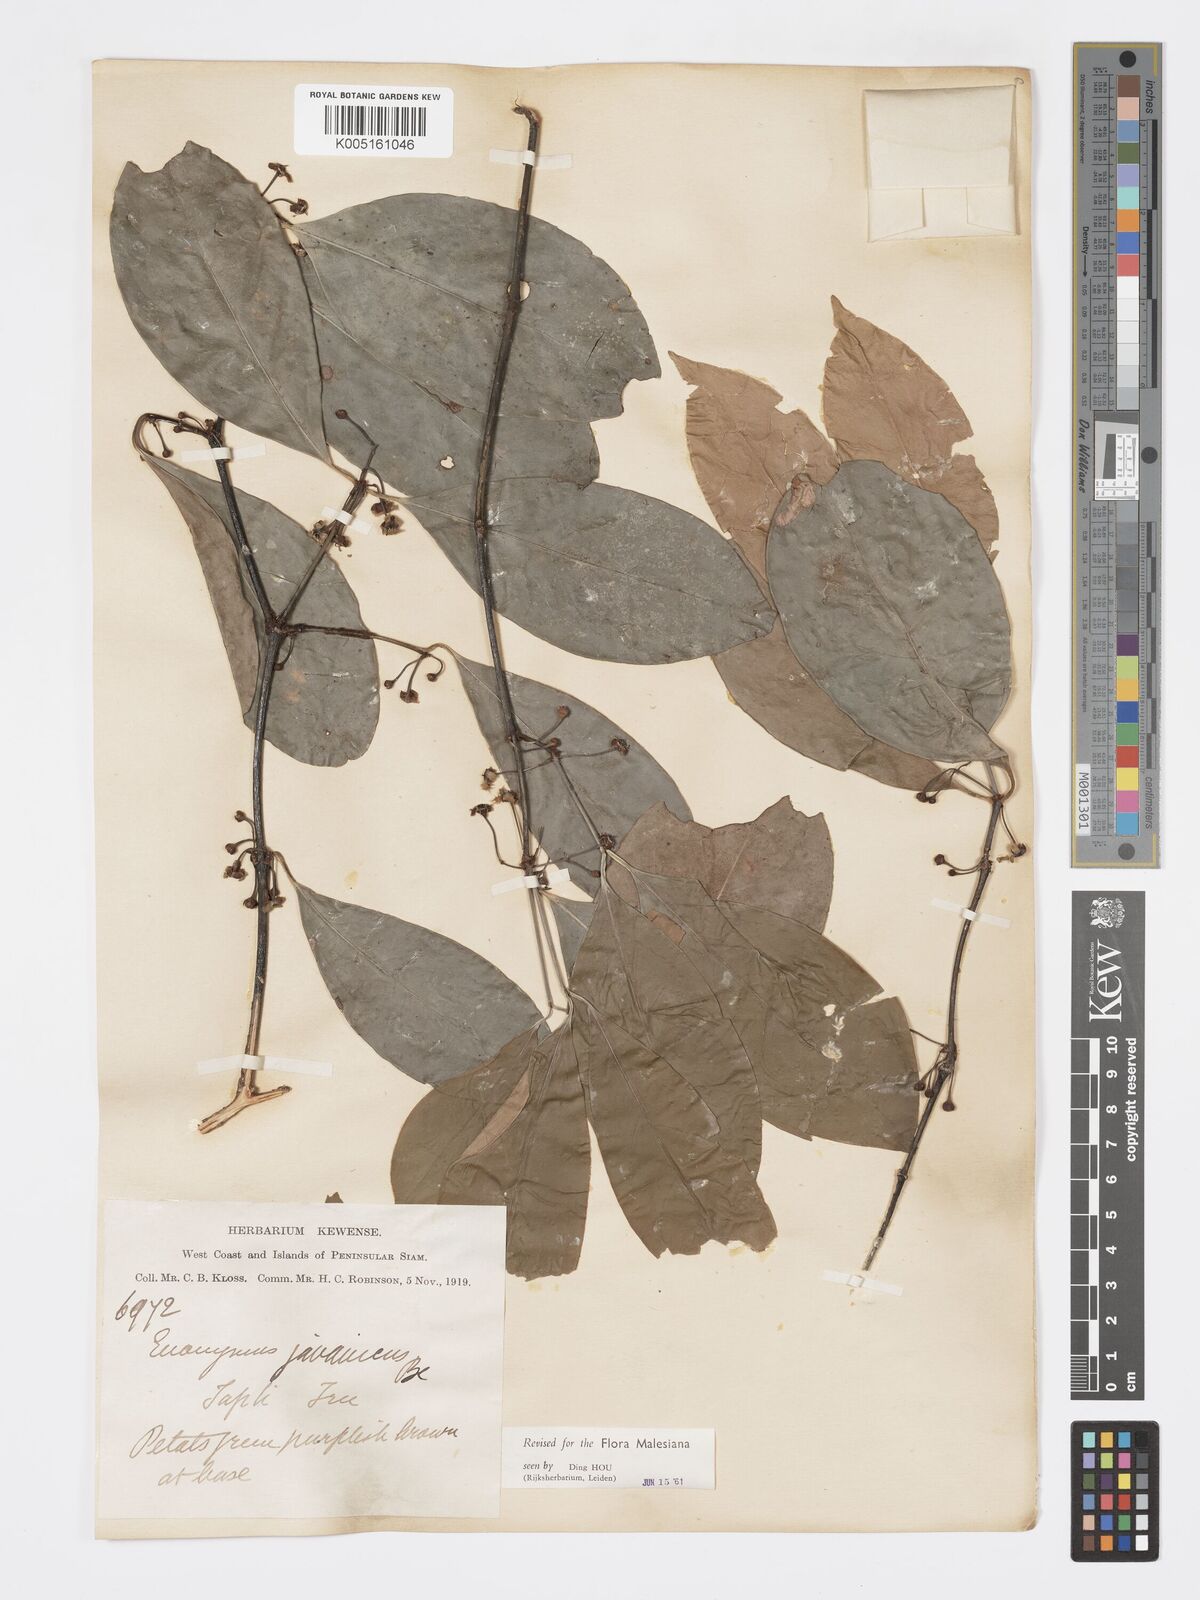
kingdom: Plantae
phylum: Tracheophyta
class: Magnoliopsida
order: Celastrales
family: Celastraceae
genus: Euonymus
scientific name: Euonymus indicus
